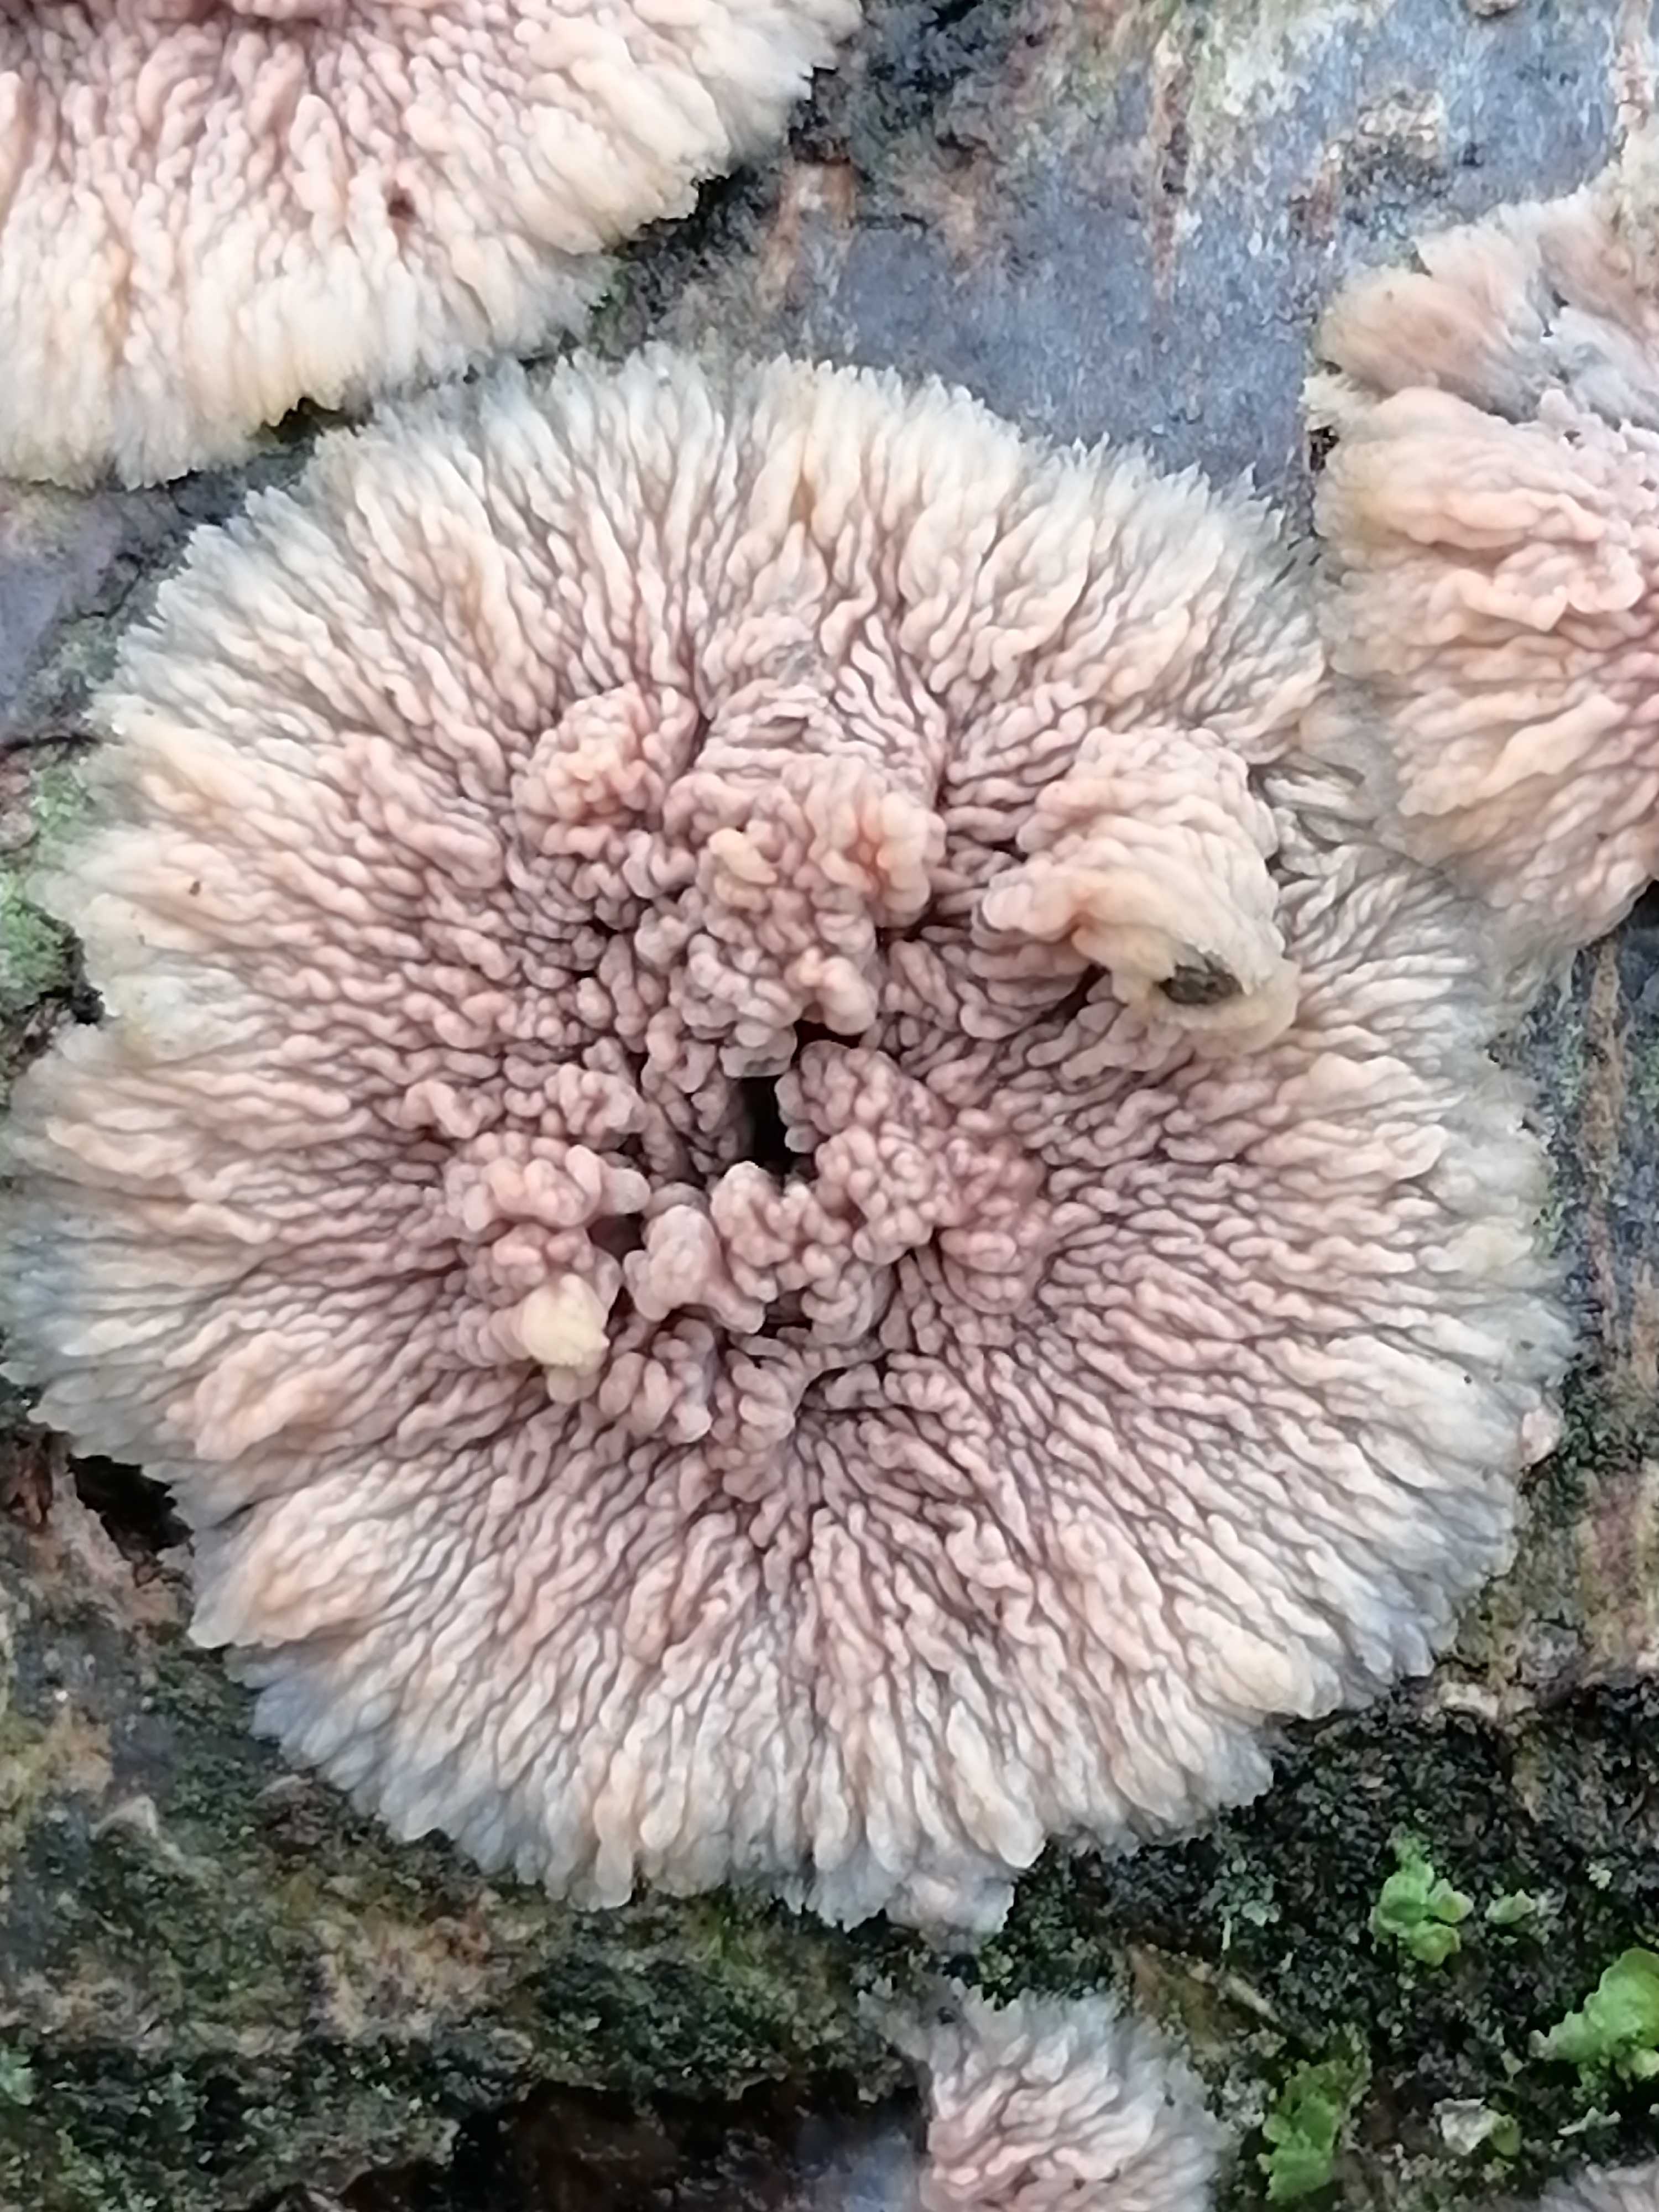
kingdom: Fungi
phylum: Basidiomycota
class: Agaricomycetes
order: Polyporales
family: Meruliaceae
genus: Phlebia
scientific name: Phlebia radiata
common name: stråle-åresvamp
